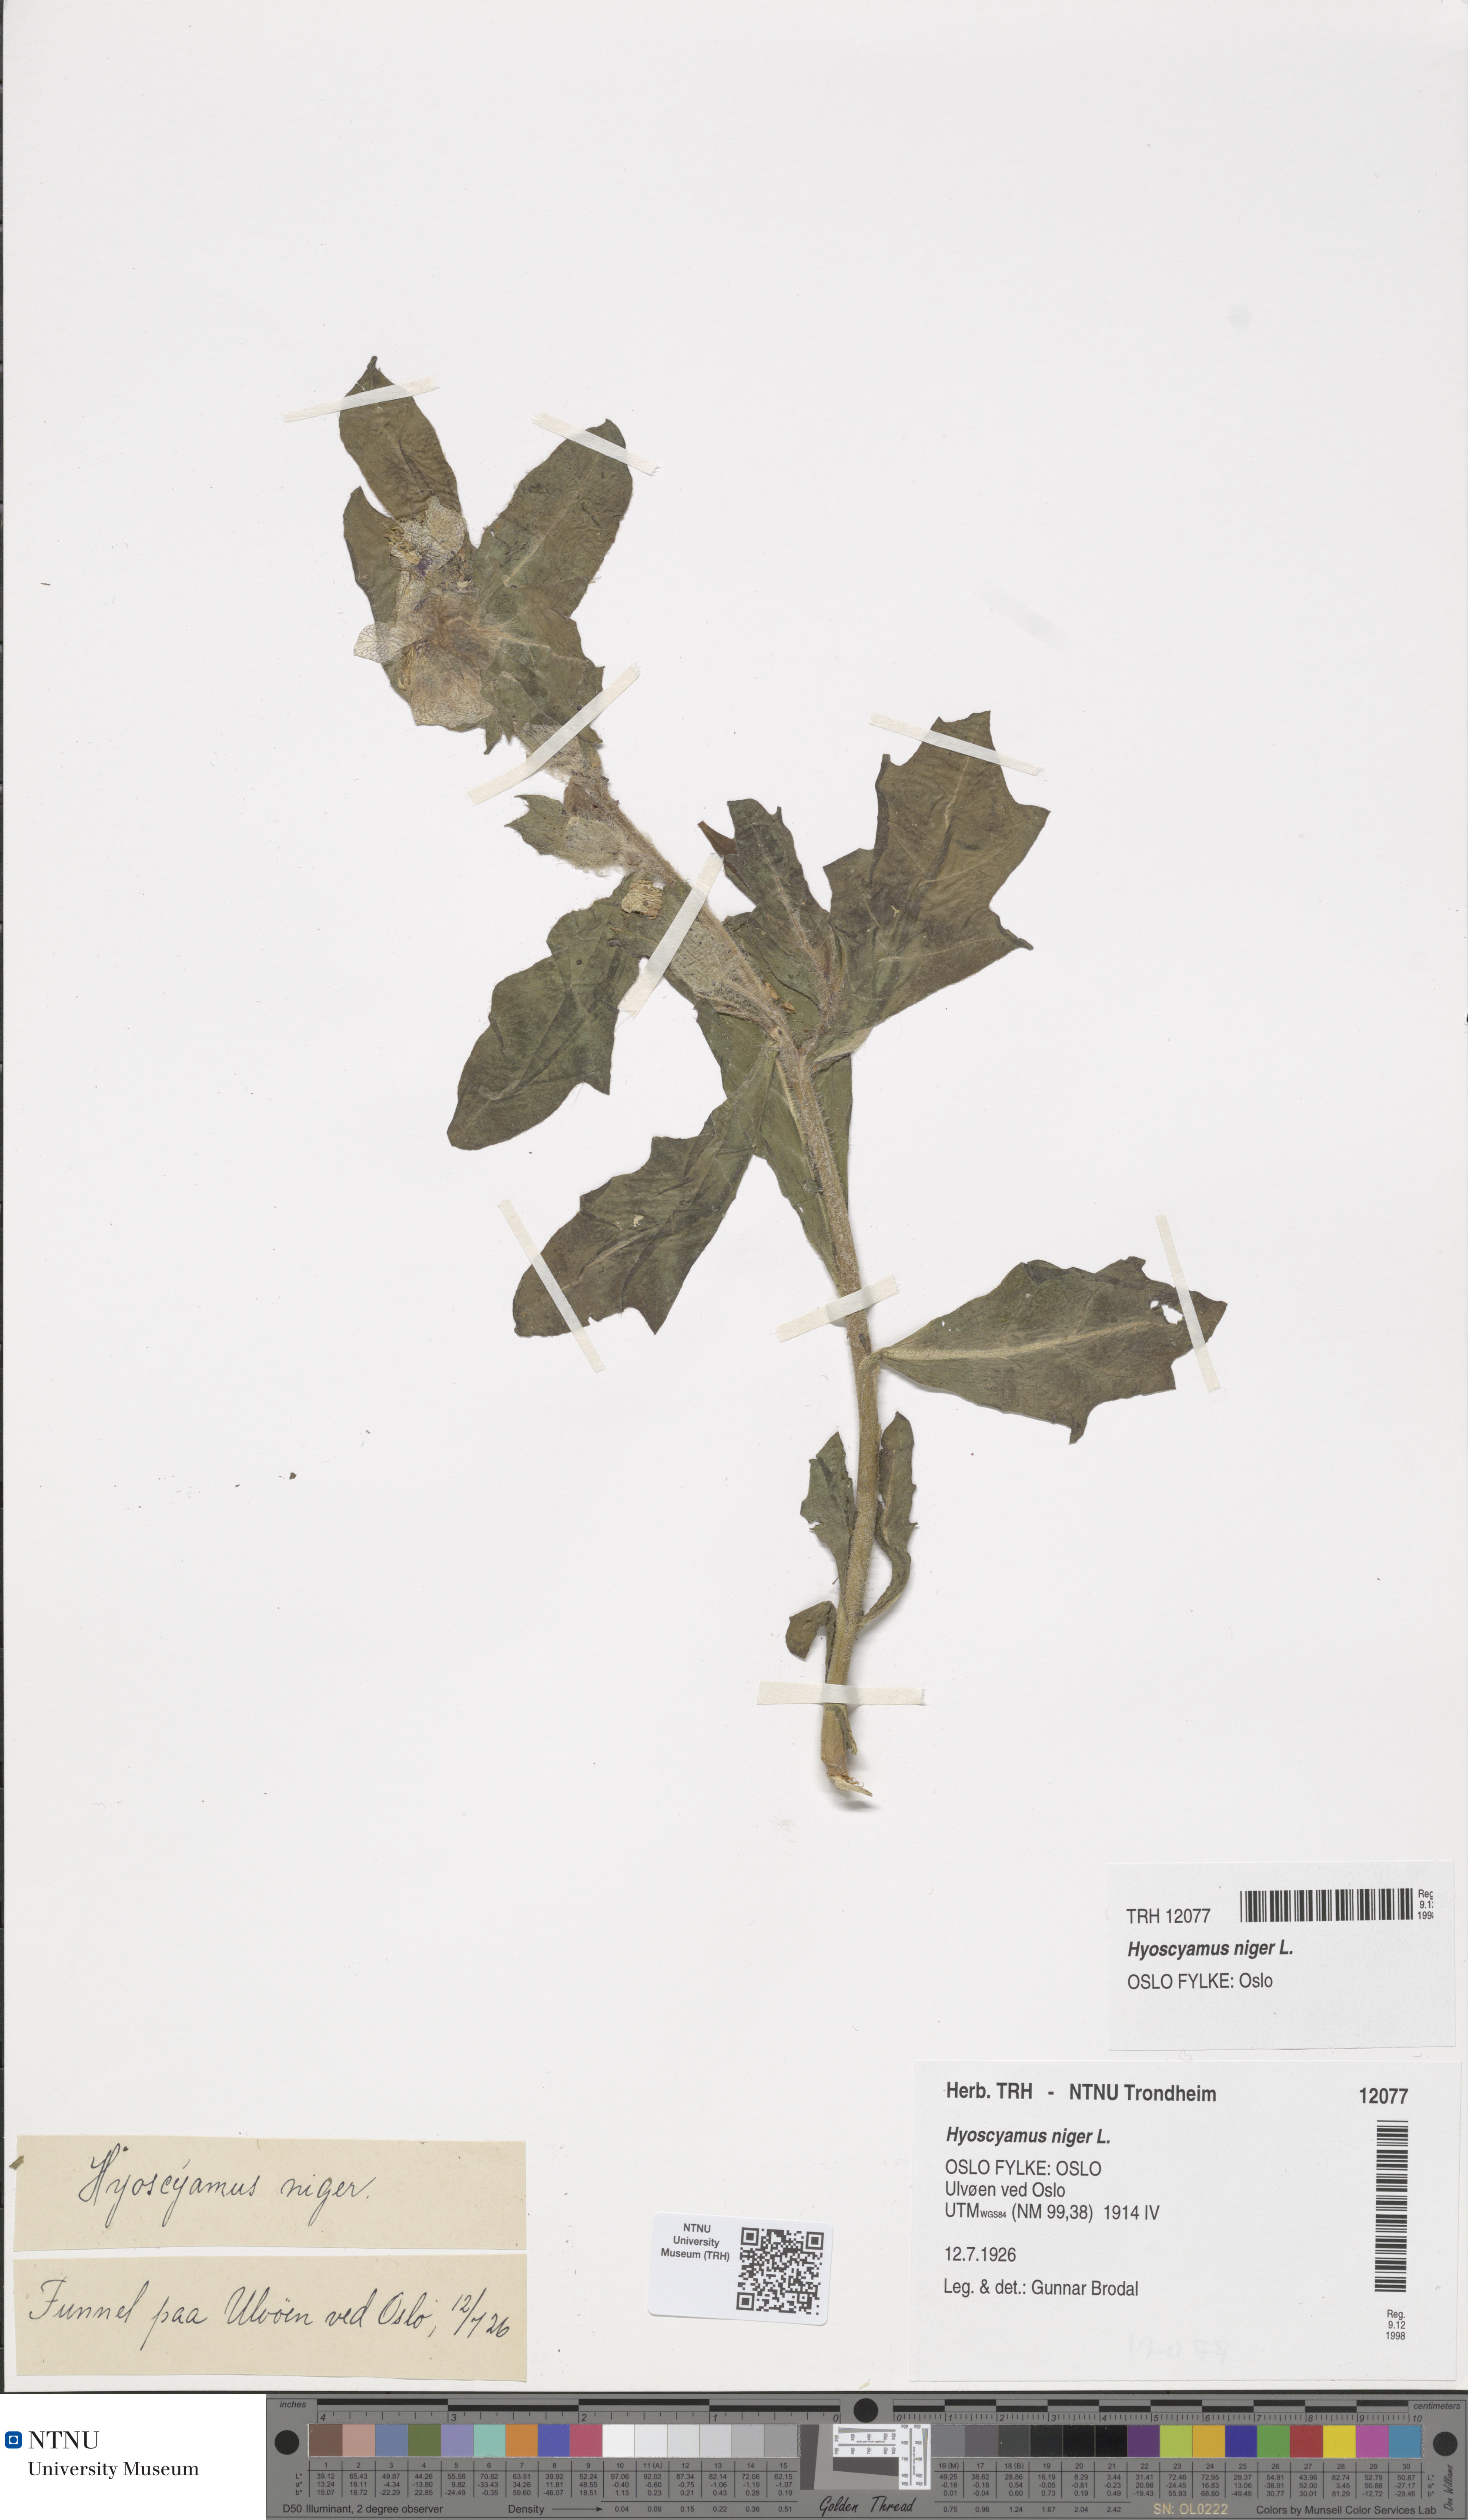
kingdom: Plantae
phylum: Tracheophyta
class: Magnoliopsida
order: Solanales
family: Solanaceae
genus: Hyoscyamus
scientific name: Hyoscyamus niger
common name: Henbane
